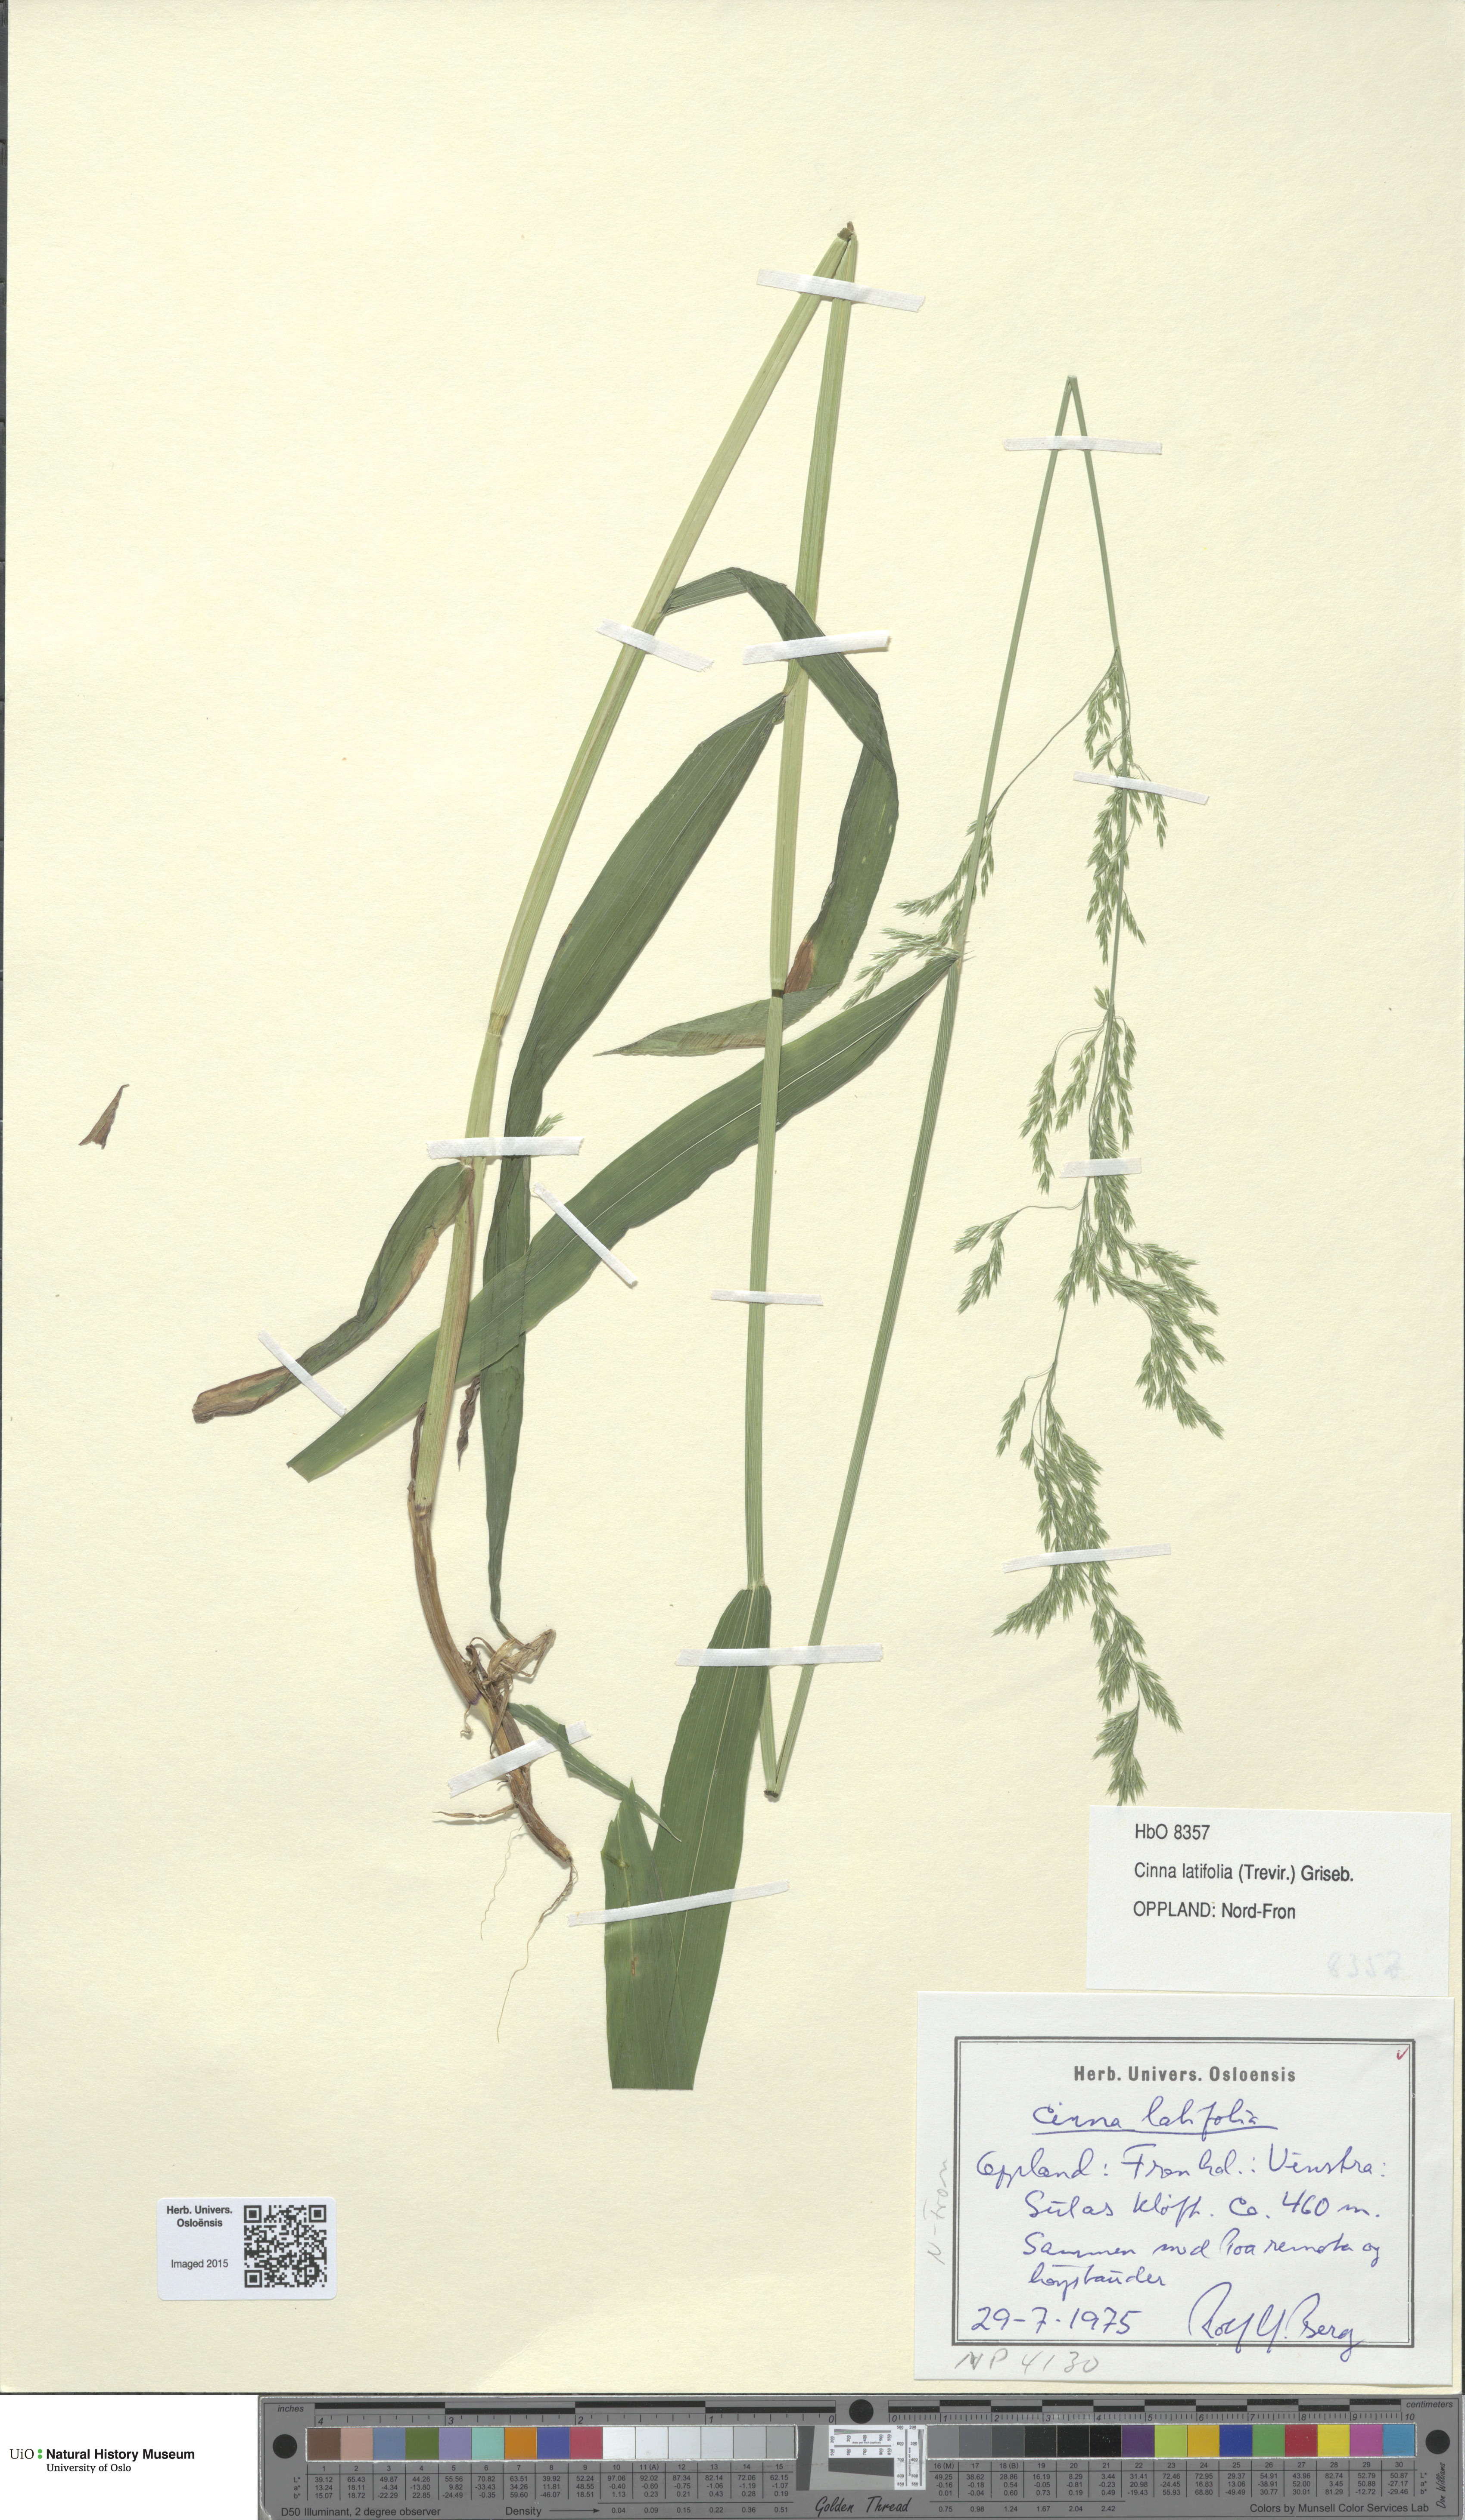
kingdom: Plantae
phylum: Tracheophyta
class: Liliopsida
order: Poales
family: Poaceae
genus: Cinna
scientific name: Cinna latifolia
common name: Drooping woodreed
